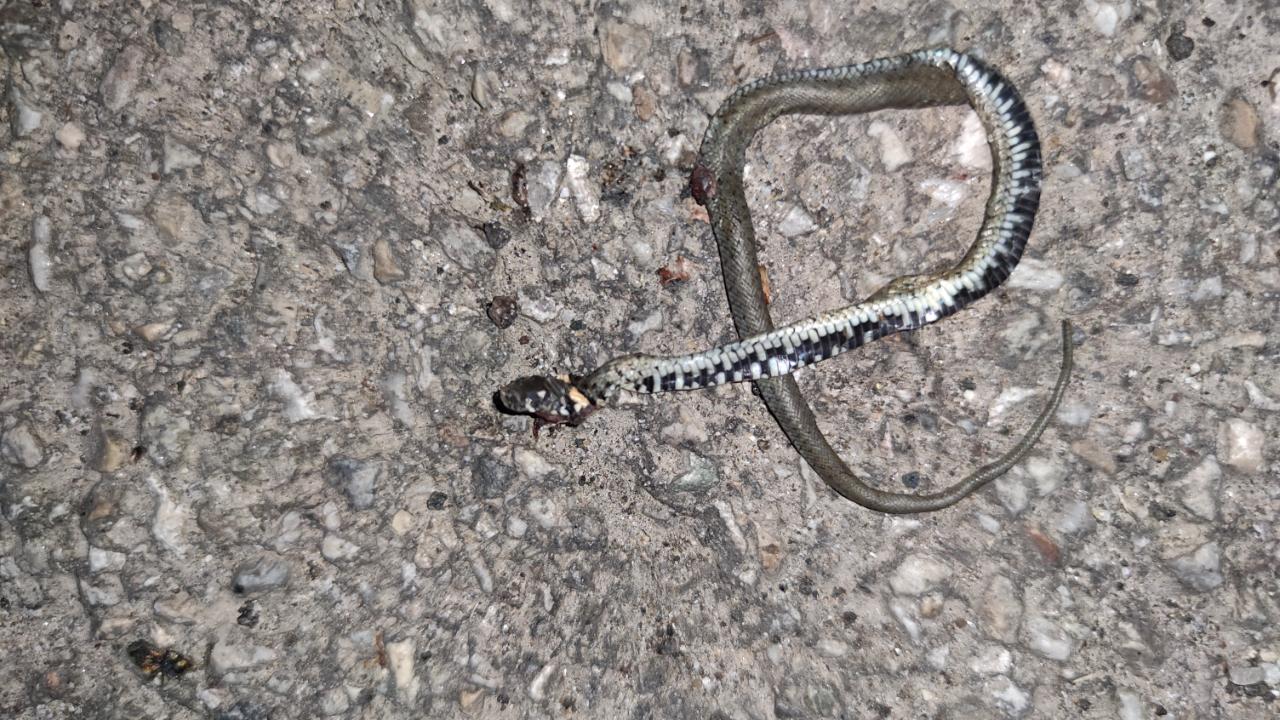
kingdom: Animalia
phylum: Chordata
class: Squamata
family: Colubridae
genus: Natrix
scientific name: Natrix natrix
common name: Grass snake
